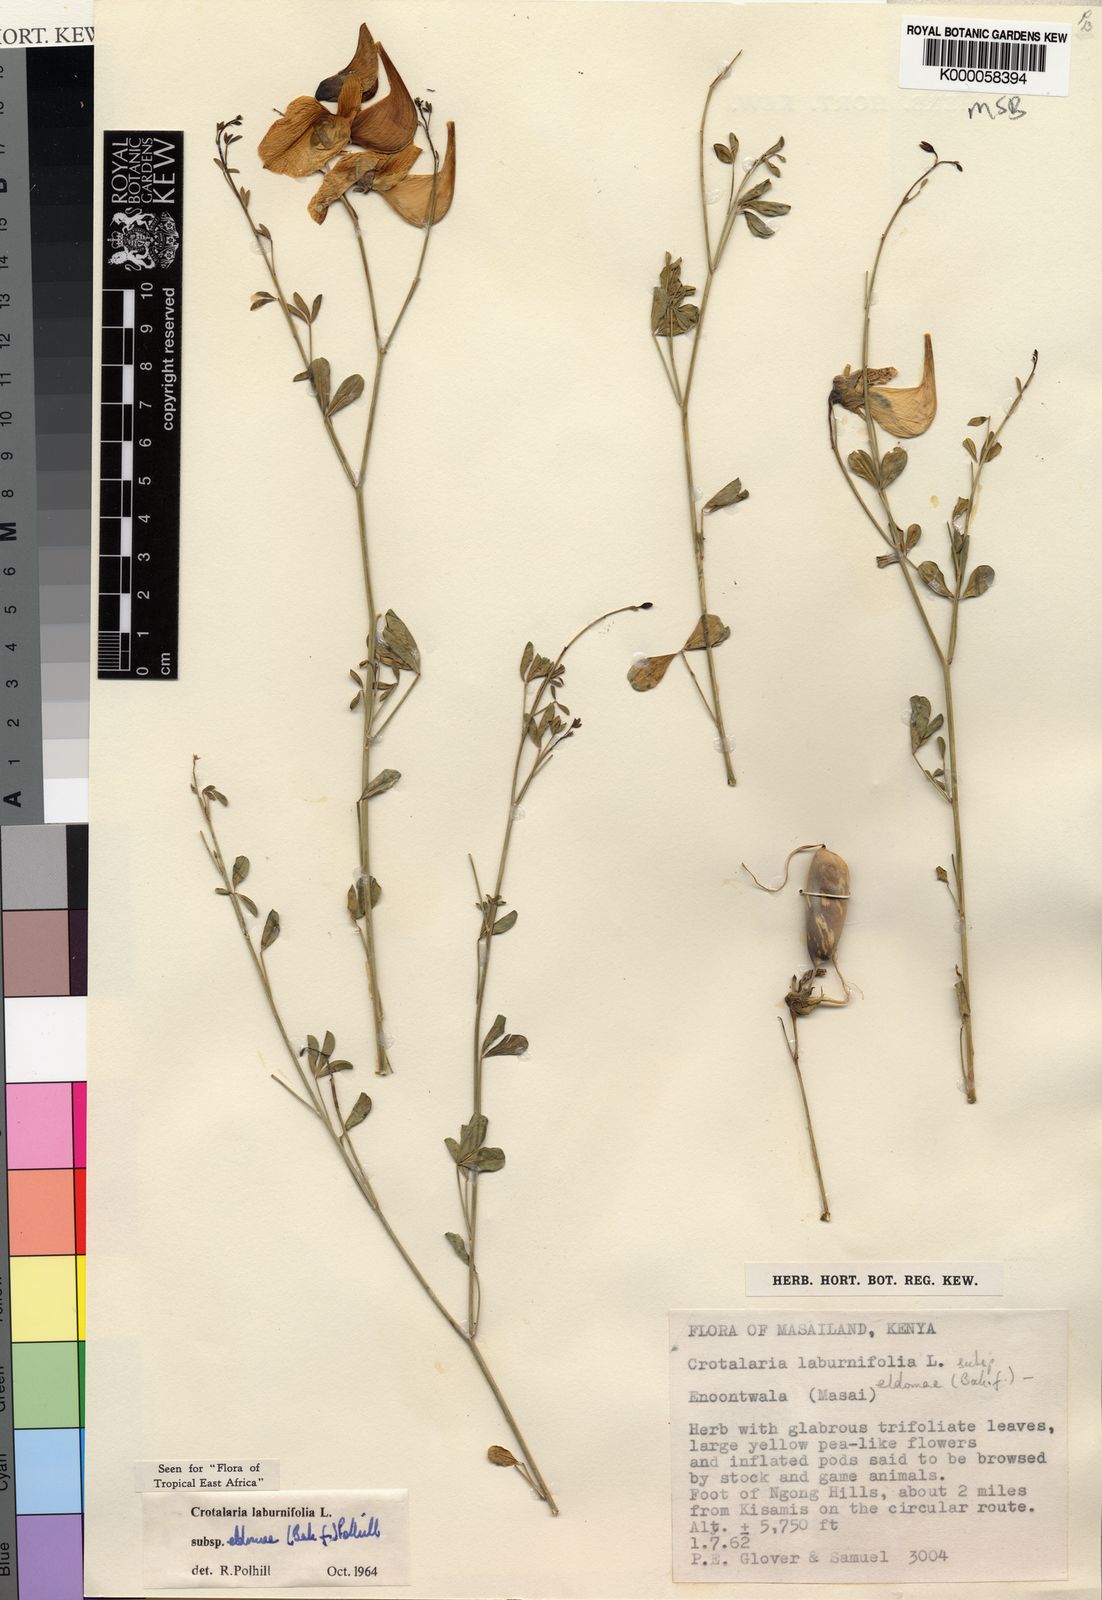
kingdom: Plantae
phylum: Tracheophyta
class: Magnoliopsida
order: Fabales
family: Fabaceae
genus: Crotalaria
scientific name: Crotalaria laburnifolia
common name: Birdflower
